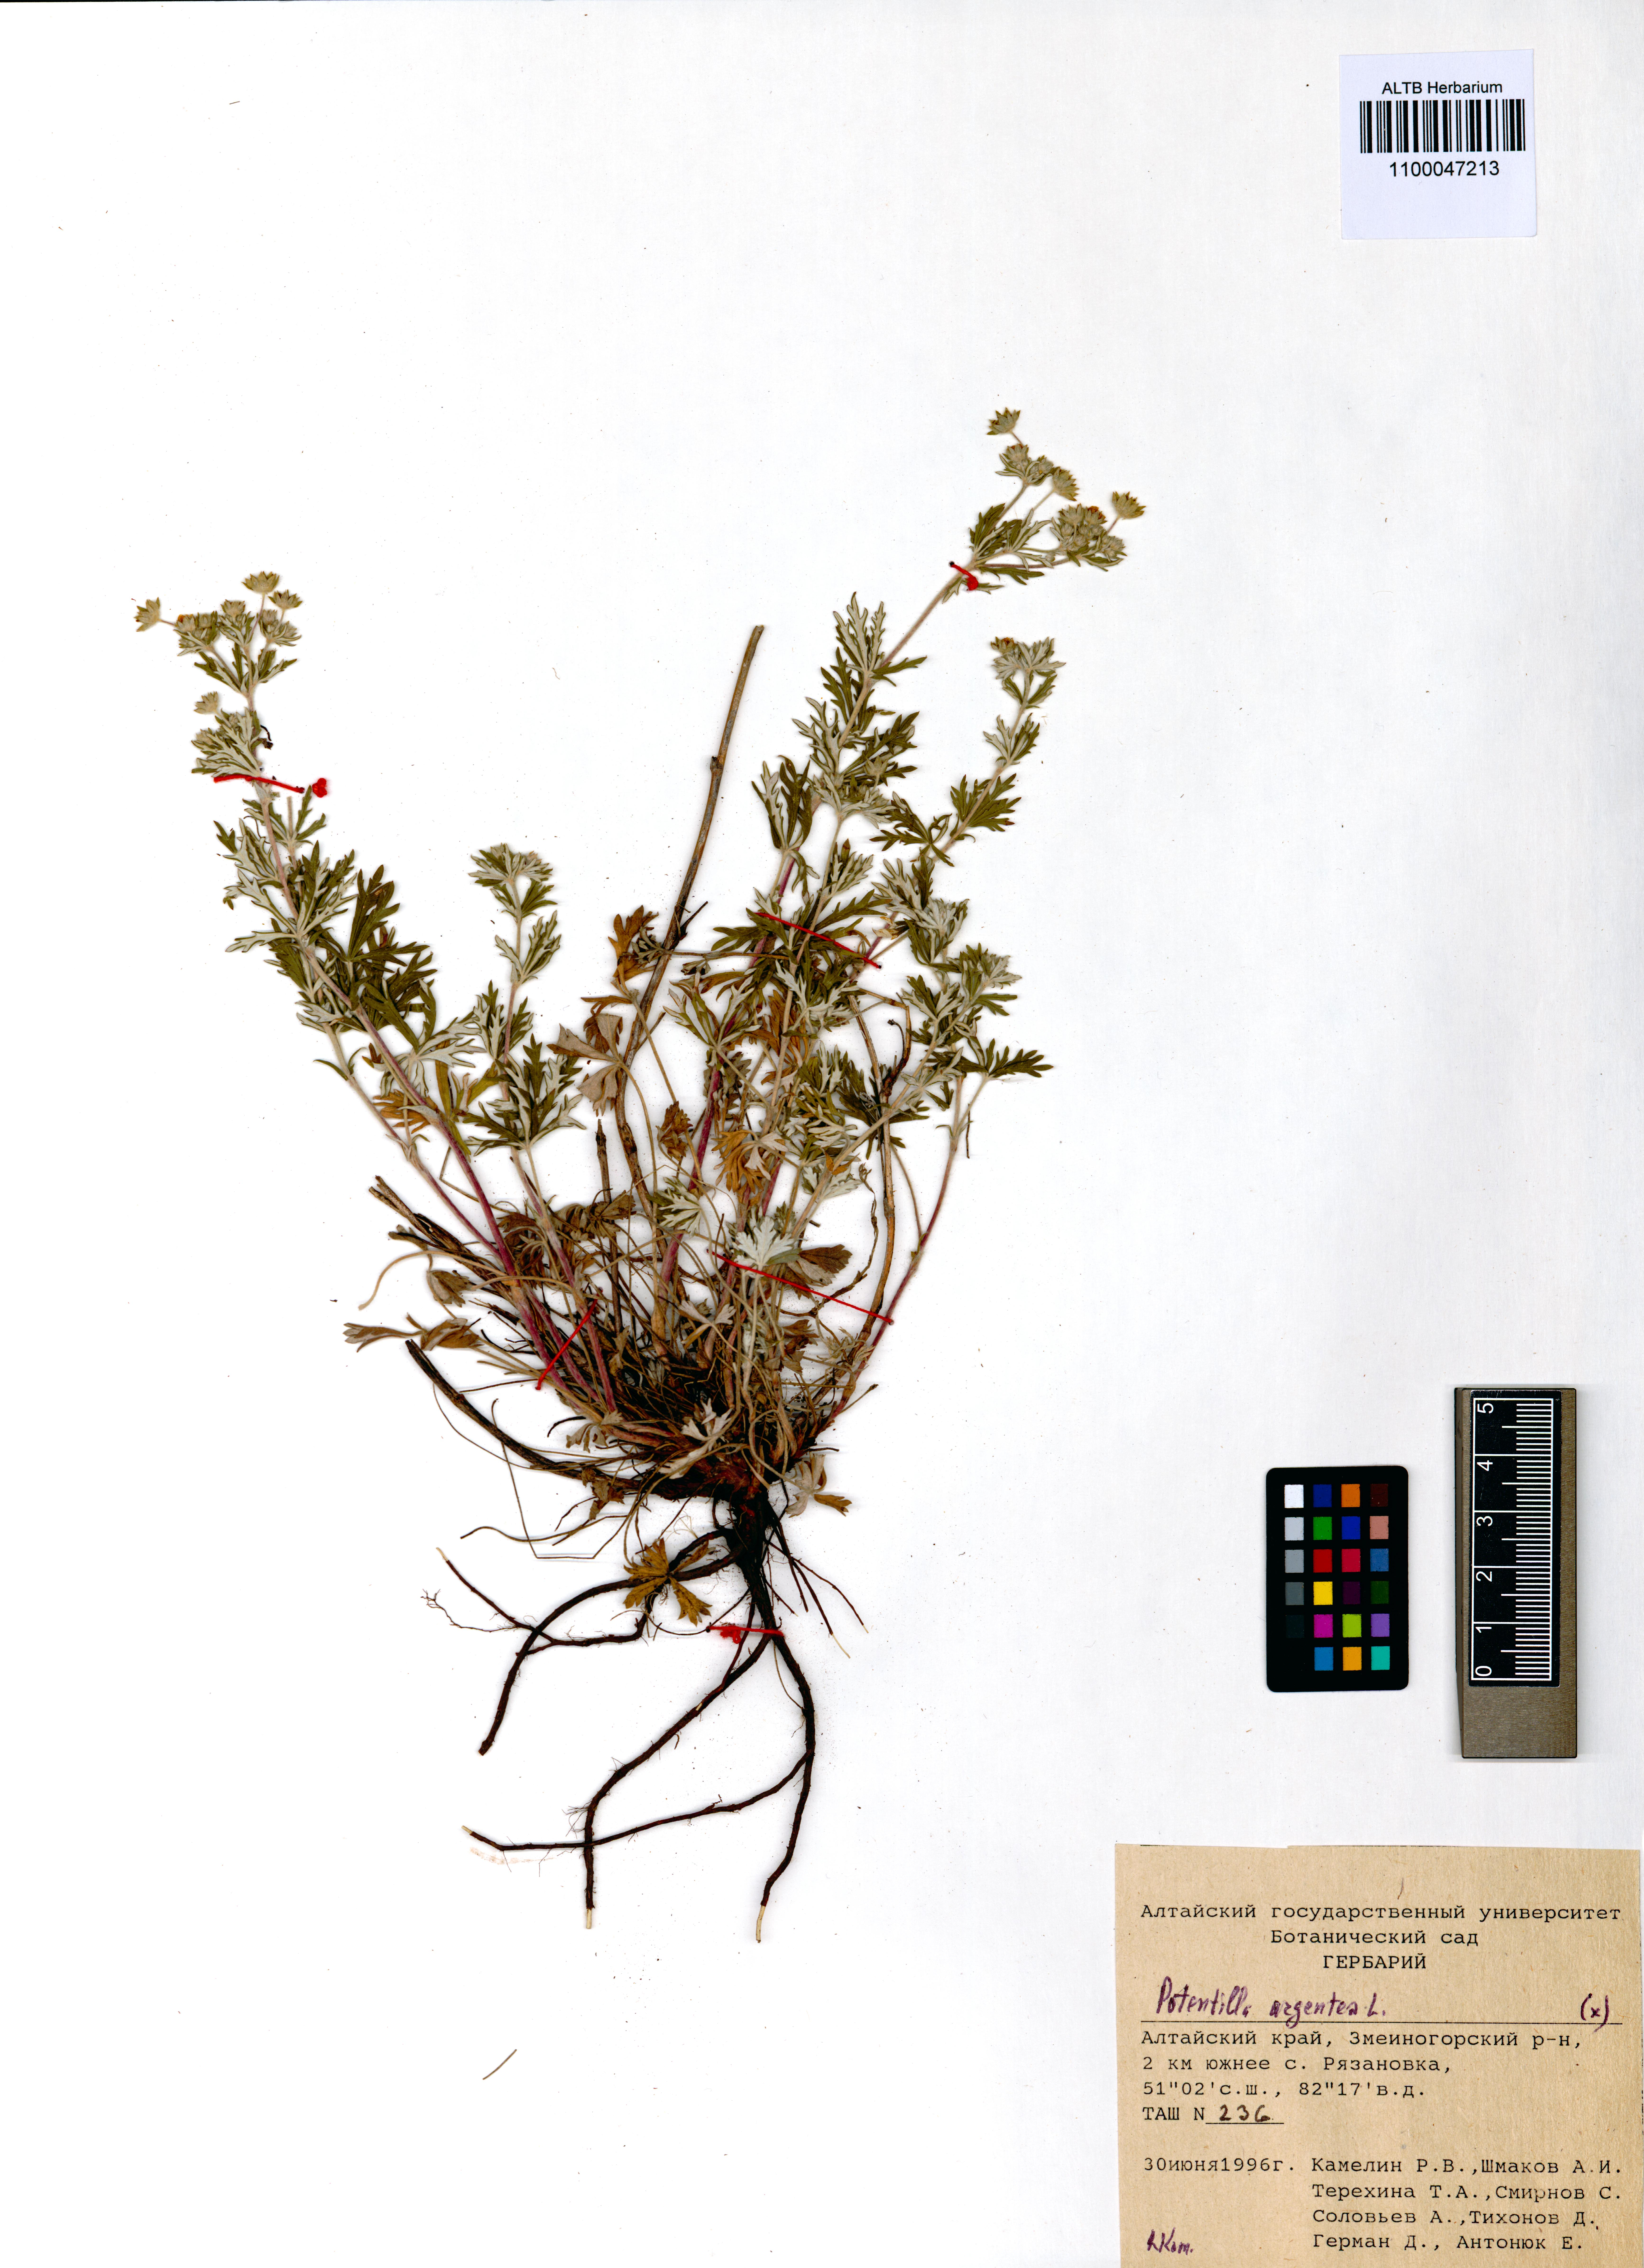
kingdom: Plantae
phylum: Tracheophyta
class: Magnoliopsida
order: Rosales
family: Rosaceae
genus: Potentilla
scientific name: Potentilla argentea
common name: Hoary cinquefoil
